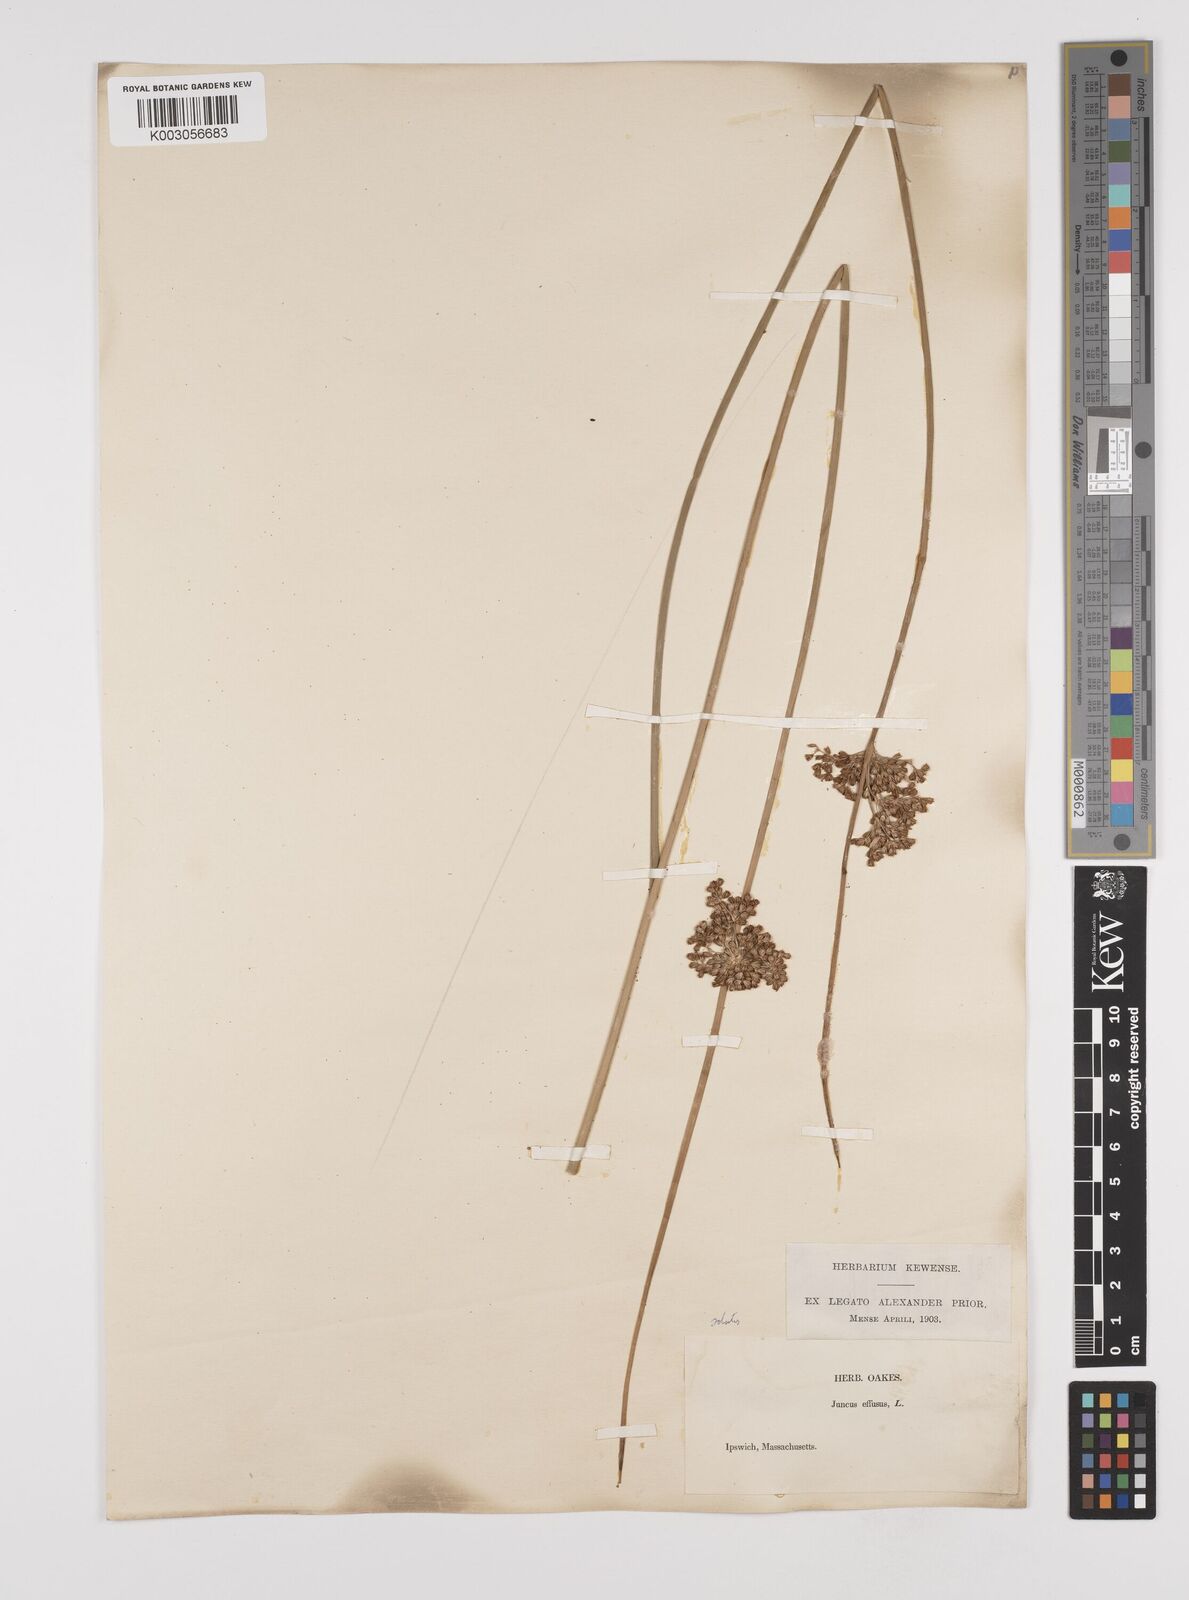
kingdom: Plantae
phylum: Tracheophyta
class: Liliopsida
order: Poales
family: Juncaceae
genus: Juncus
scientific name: Juncus effusus
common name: Soft rush
